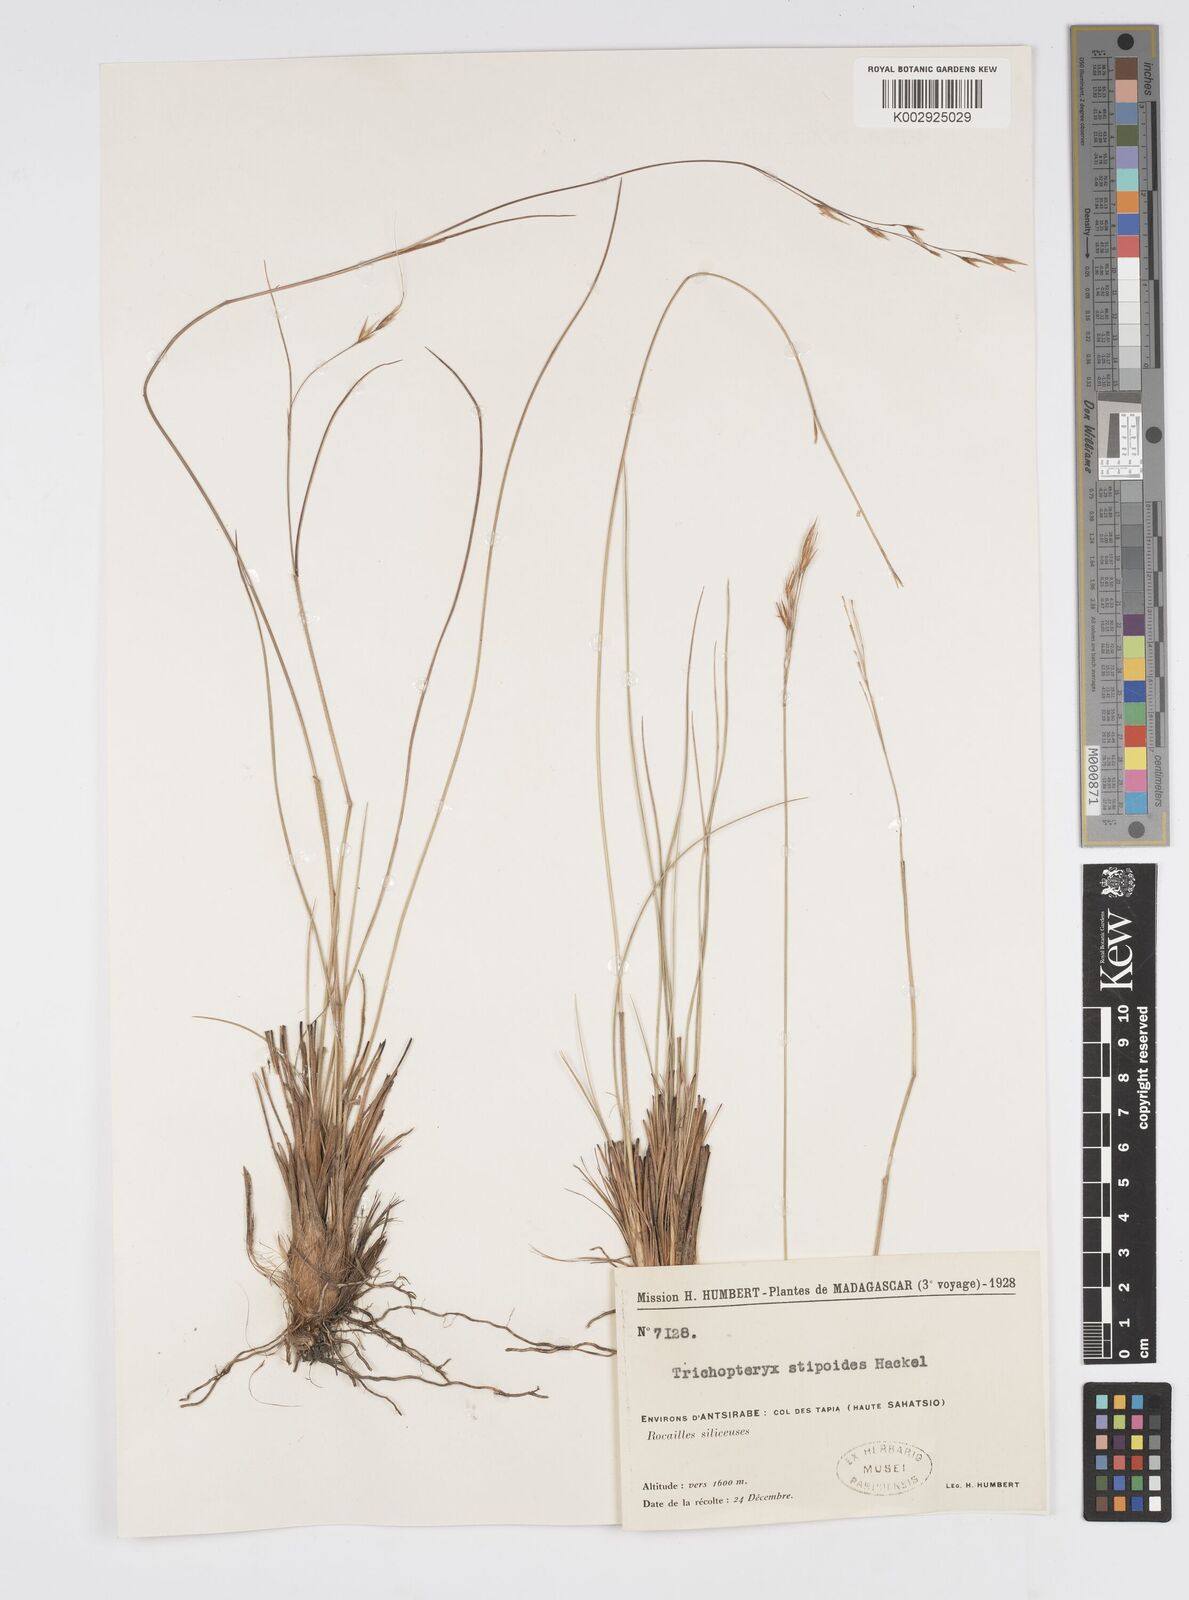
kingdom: Plantae
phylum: Tracheophyta
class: Liliopsida
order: Poales
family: Poaceae
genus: Loudetia
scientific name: Loudetia
